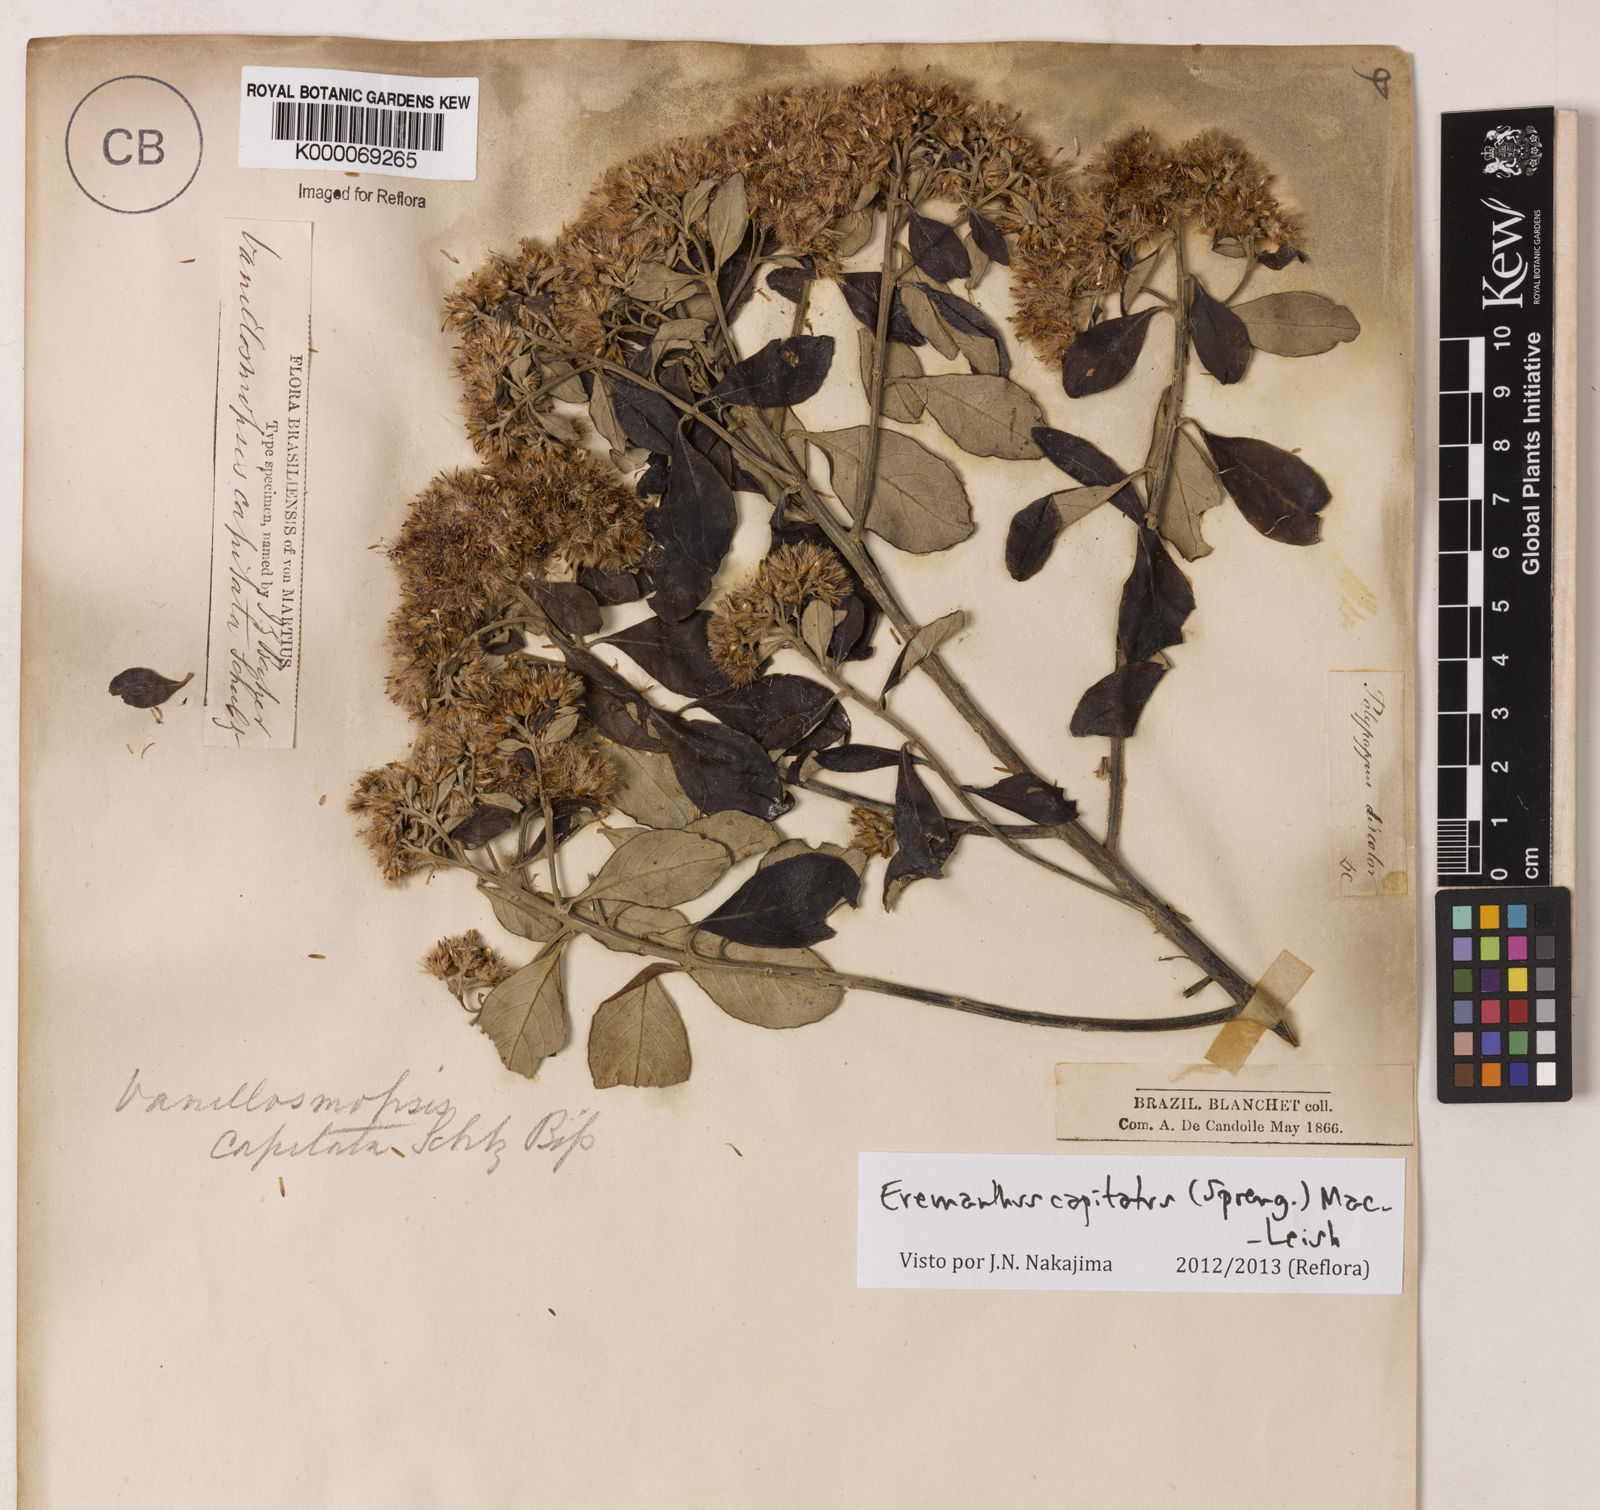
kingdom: Plantae
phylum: Tracheophyta
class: Magnoliopsida
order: Asterales
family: Asteraceae
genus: Eremanthus
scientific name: Eremanthus capitatus
